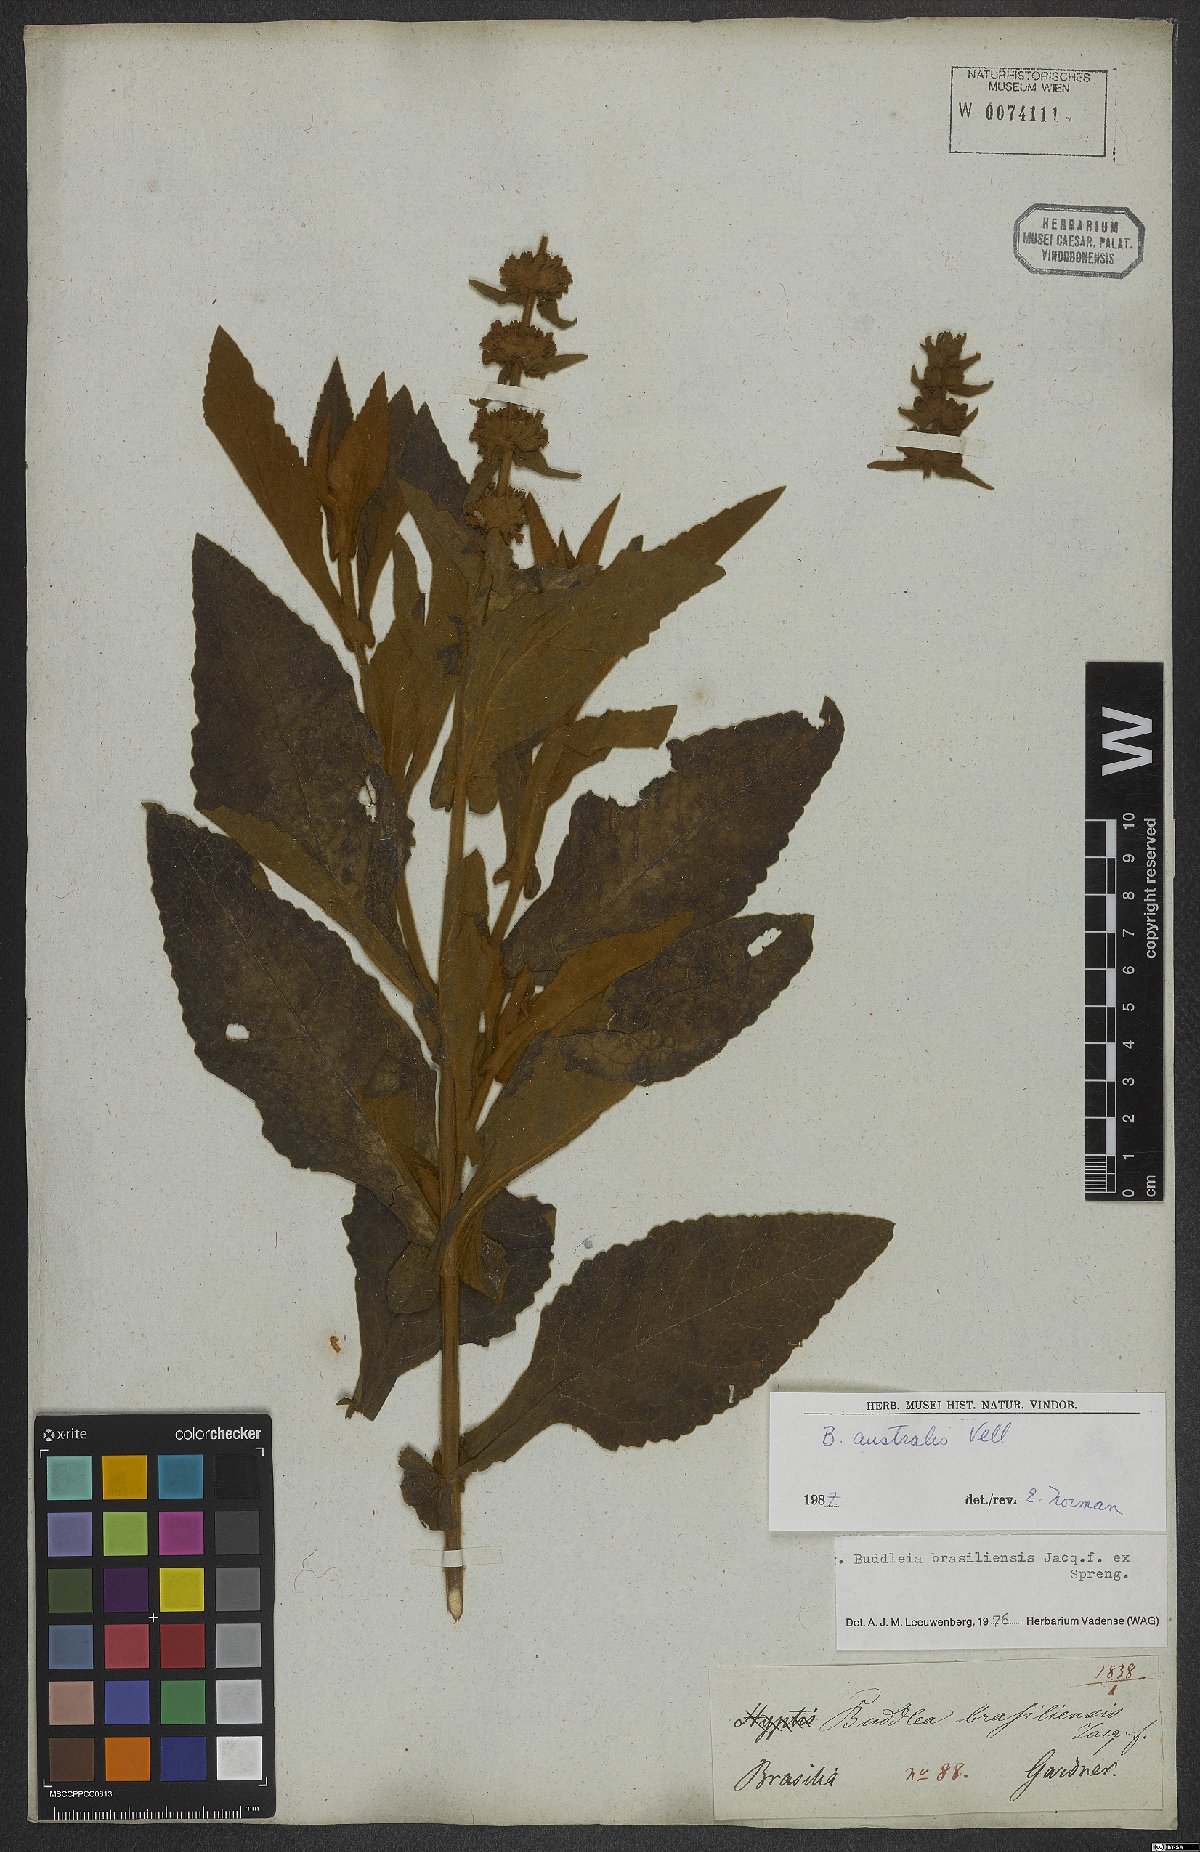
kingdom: Plantae
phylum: Tracheophyta
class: Magnoliopsida
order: Lamiales
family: Scrophulariaceae
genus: Buddleja
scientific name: Buddleja stachyoides
